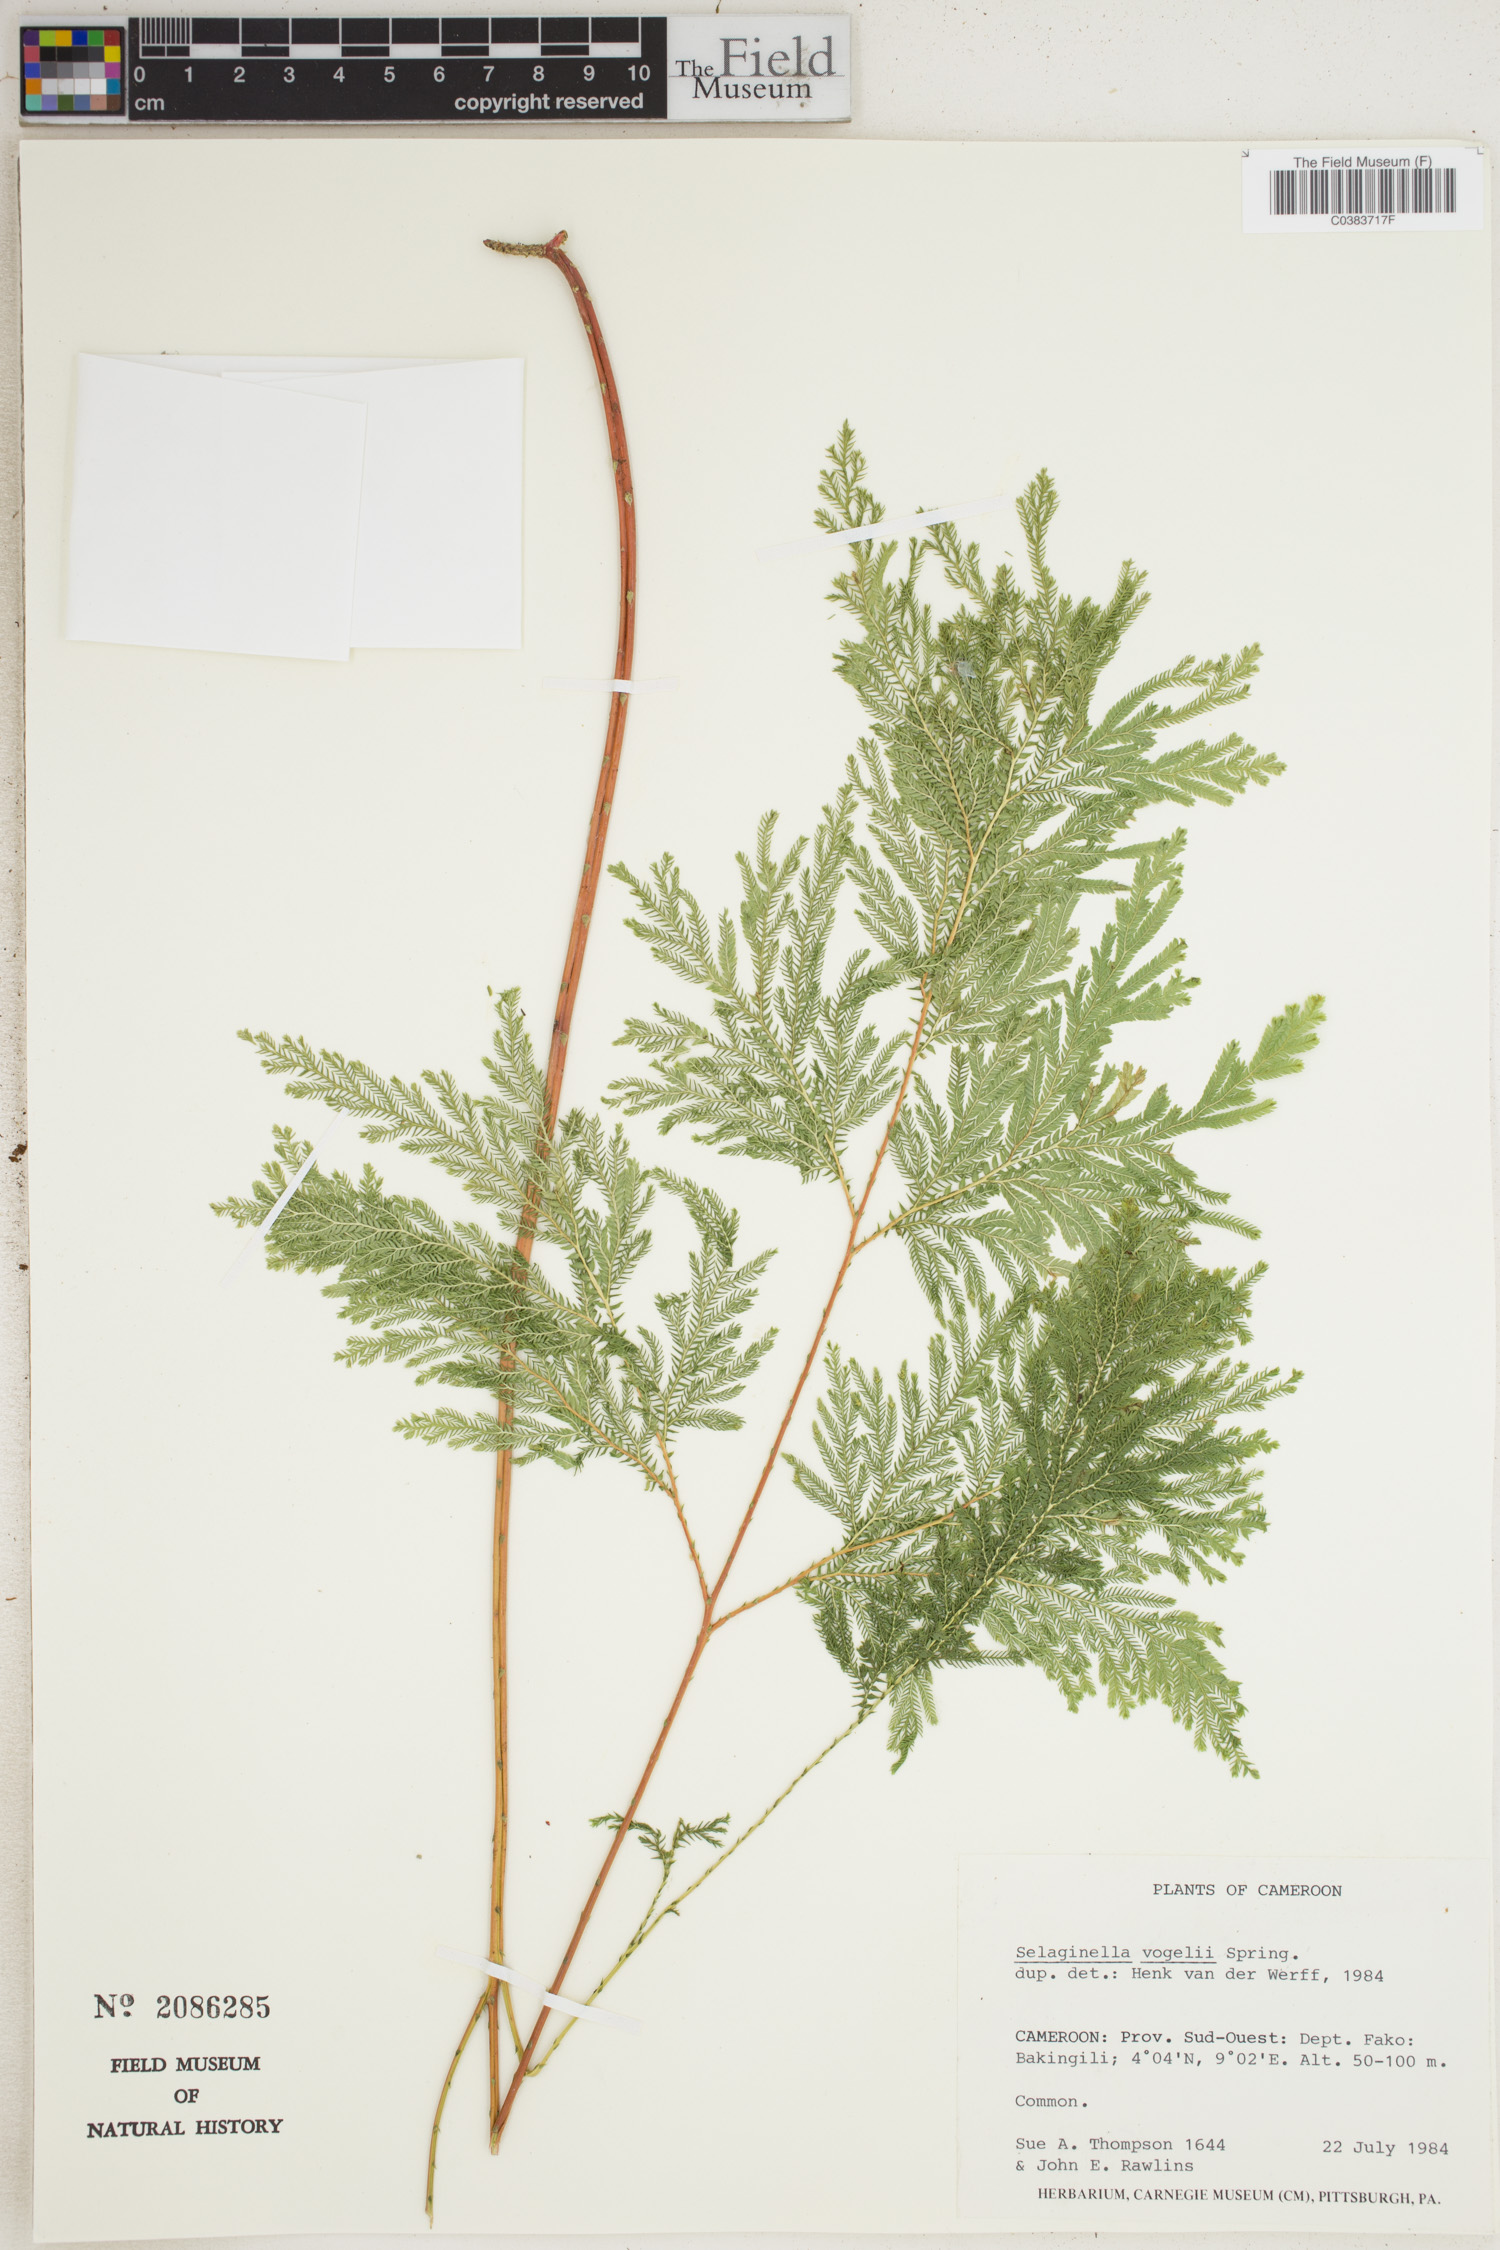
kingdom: Plantae
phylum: Tracheophyta
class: Lycopodiopsida
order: Selaginellales
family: Selaginellaceae
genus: Selaginella
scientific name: Selaginella vogelii
